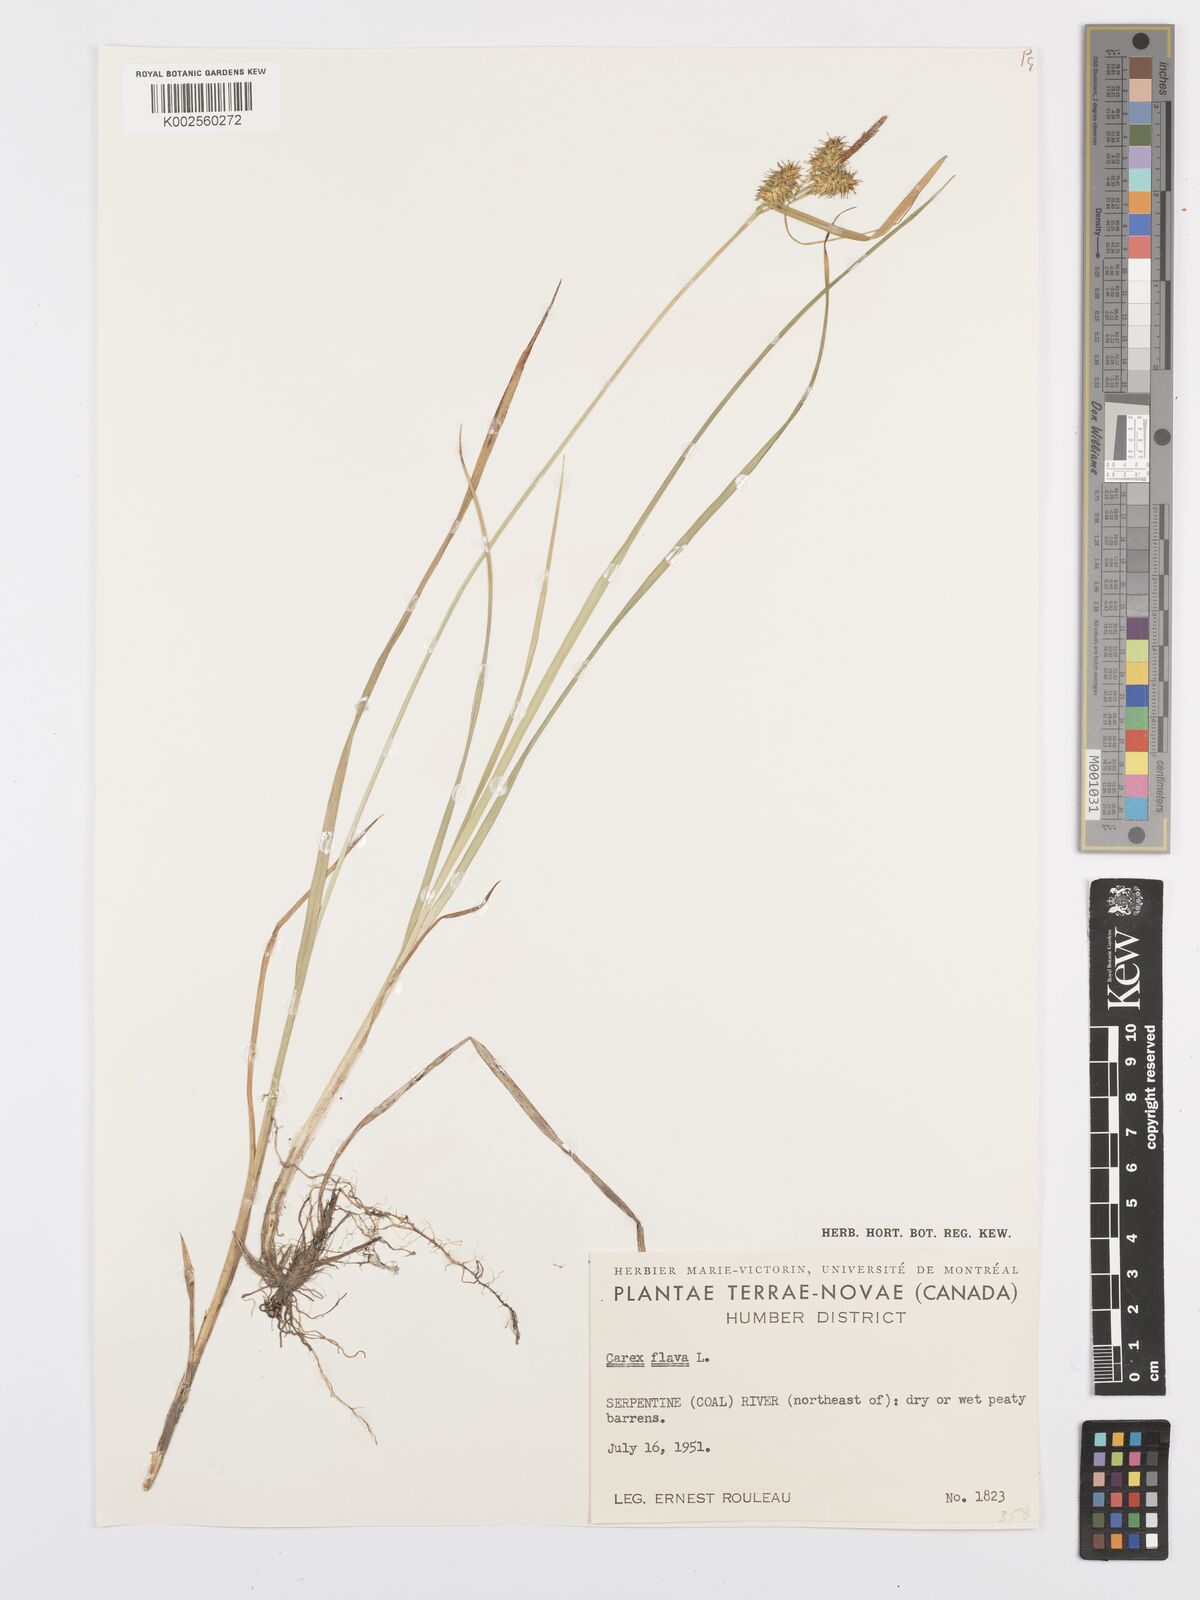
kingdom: Plantae
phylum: Tracheophyta
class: Liliopsida
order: Poales
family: Cyperaceae
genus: Carex
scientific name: Carex flava
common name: Large yellow-sedge
